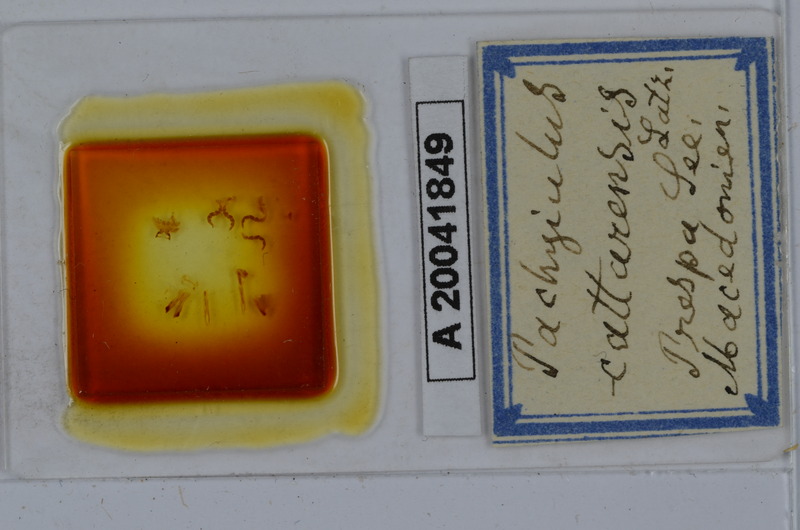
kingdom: Animalia
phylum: Arthropoda
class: Diplopoda
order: Julida
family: Julidae
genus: Pachyiulus
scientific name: Pachyiulus cattarensis
